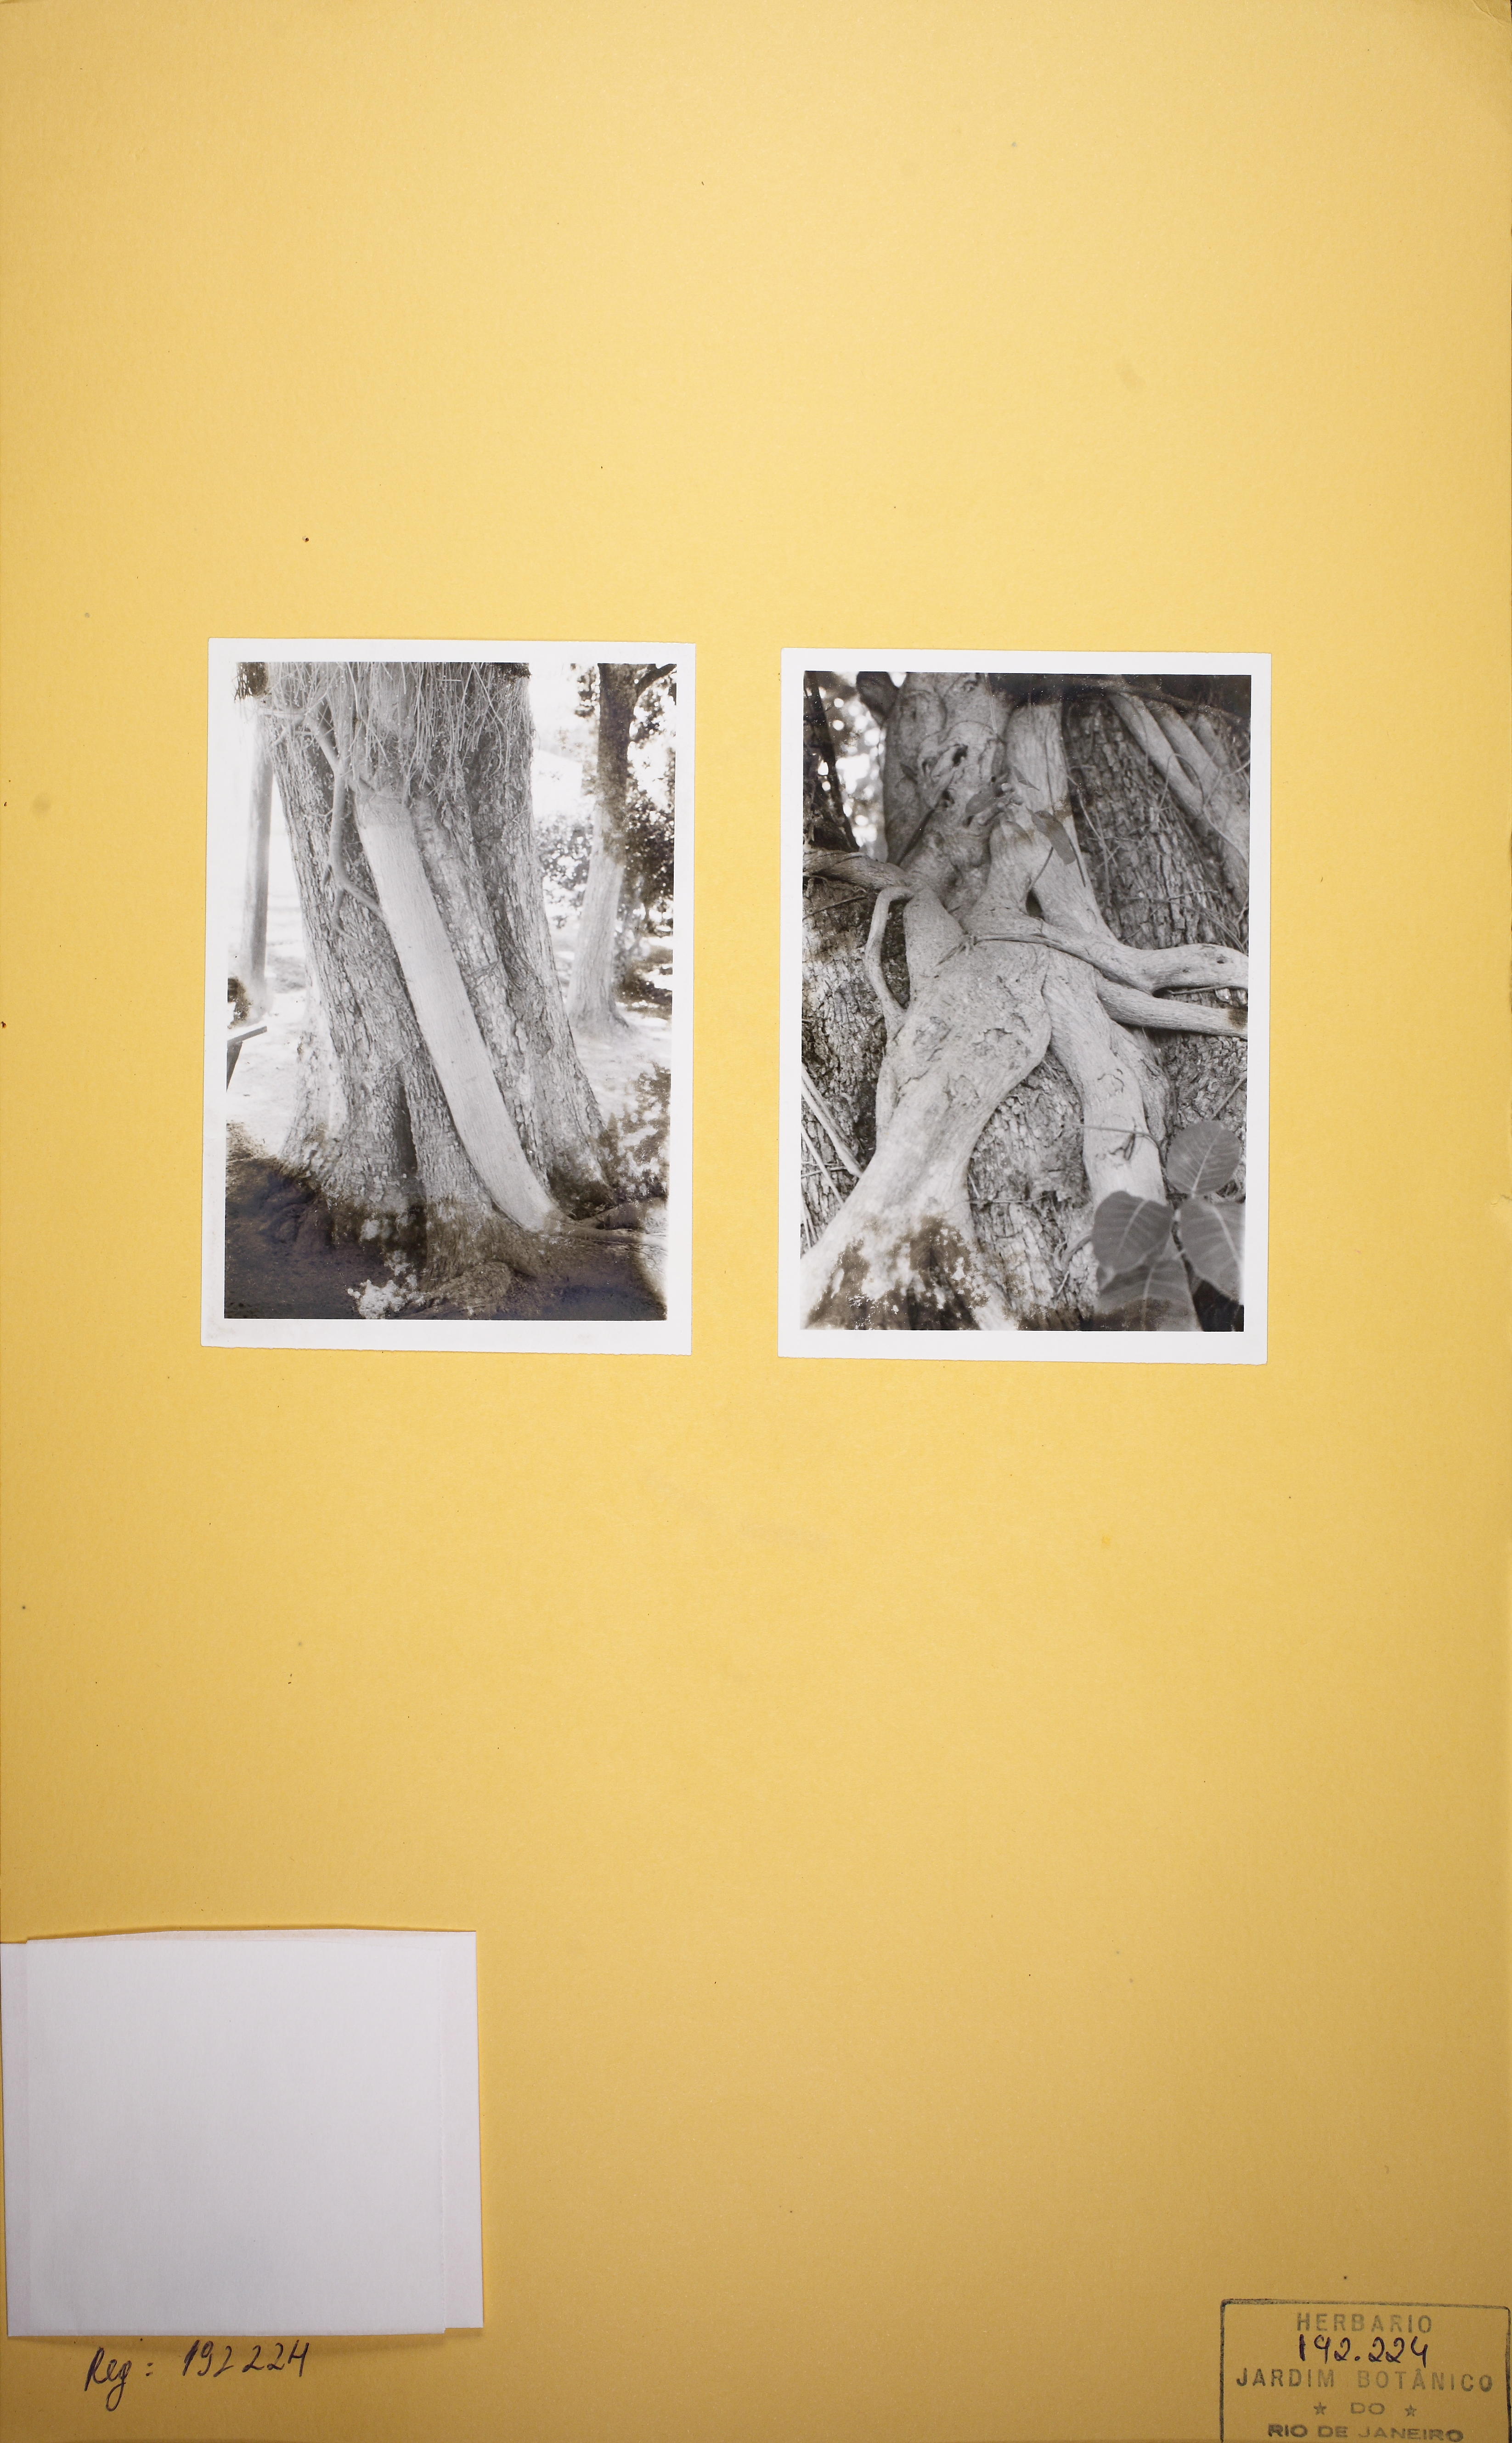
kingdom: Plantae
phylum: Tracheophyta
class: Magnoliopsida
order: Rosales
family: Moraceae
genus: Ficus
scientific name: Ficus guaranitica
